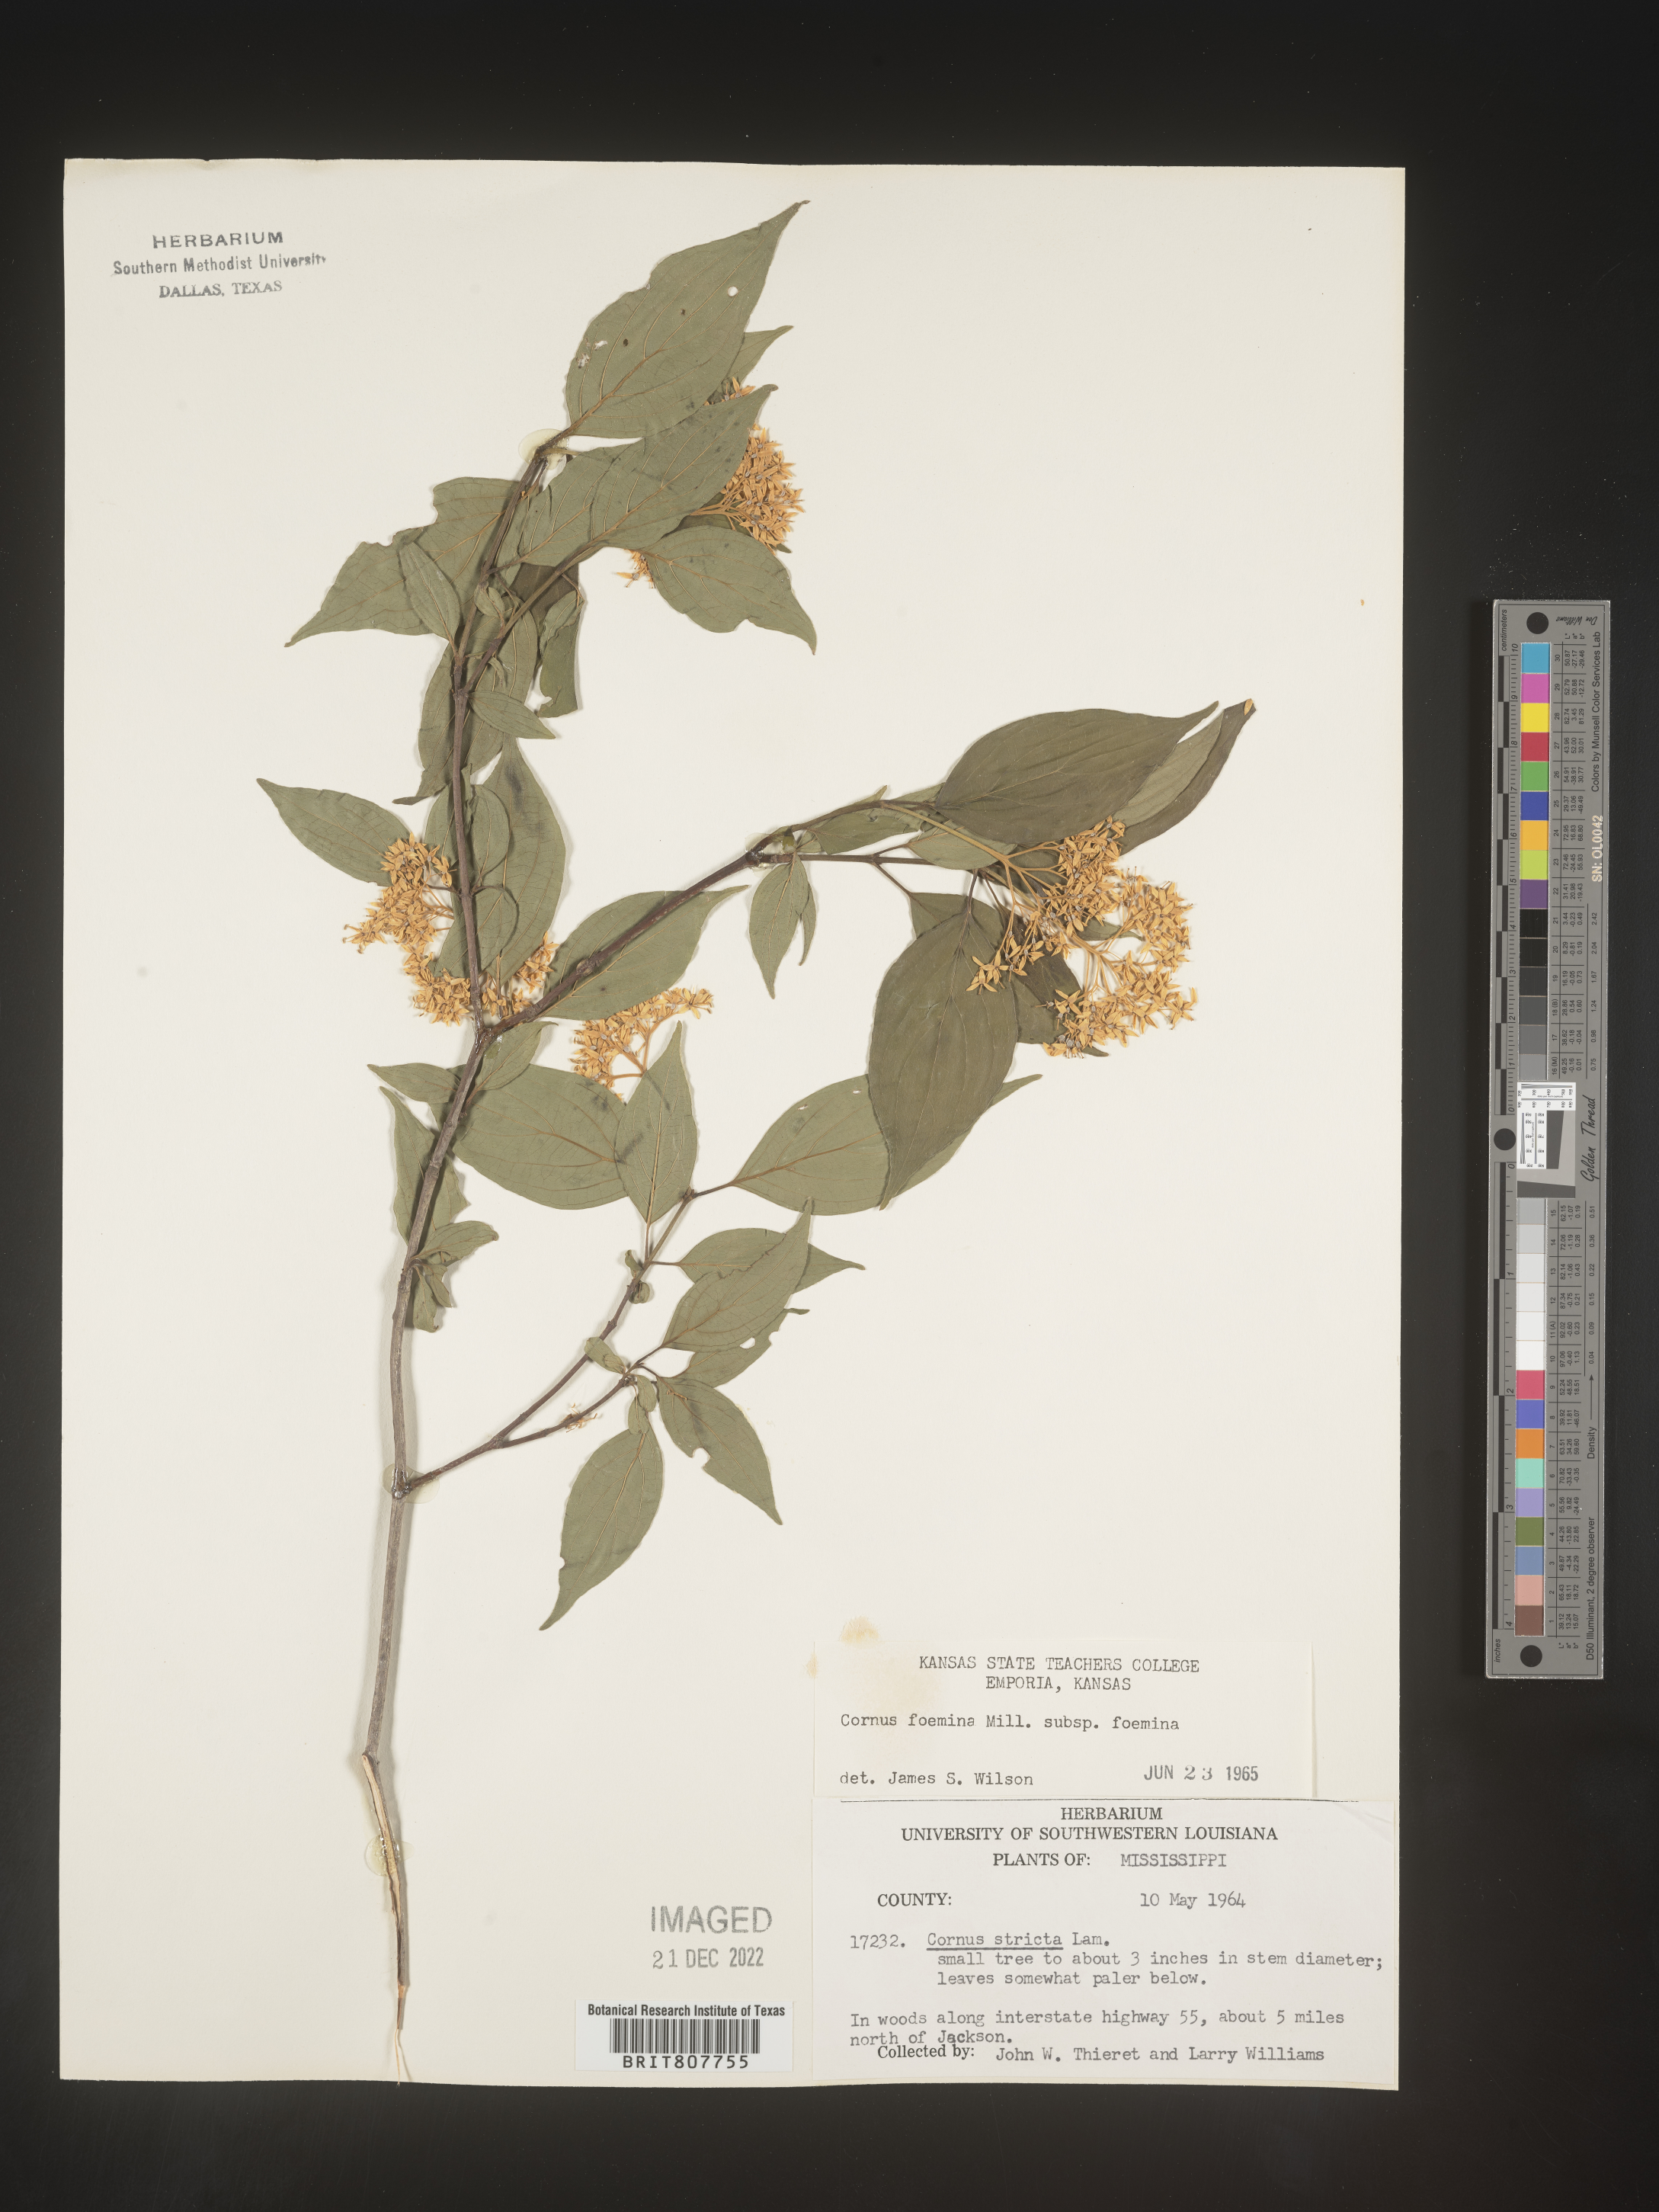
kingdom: Plantae
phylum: Tracheophyta
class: Magnoliopsida
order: Cornales
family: Cornaceae
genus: Cornus
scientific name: Cornus foemina
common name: Swamp dogwood
